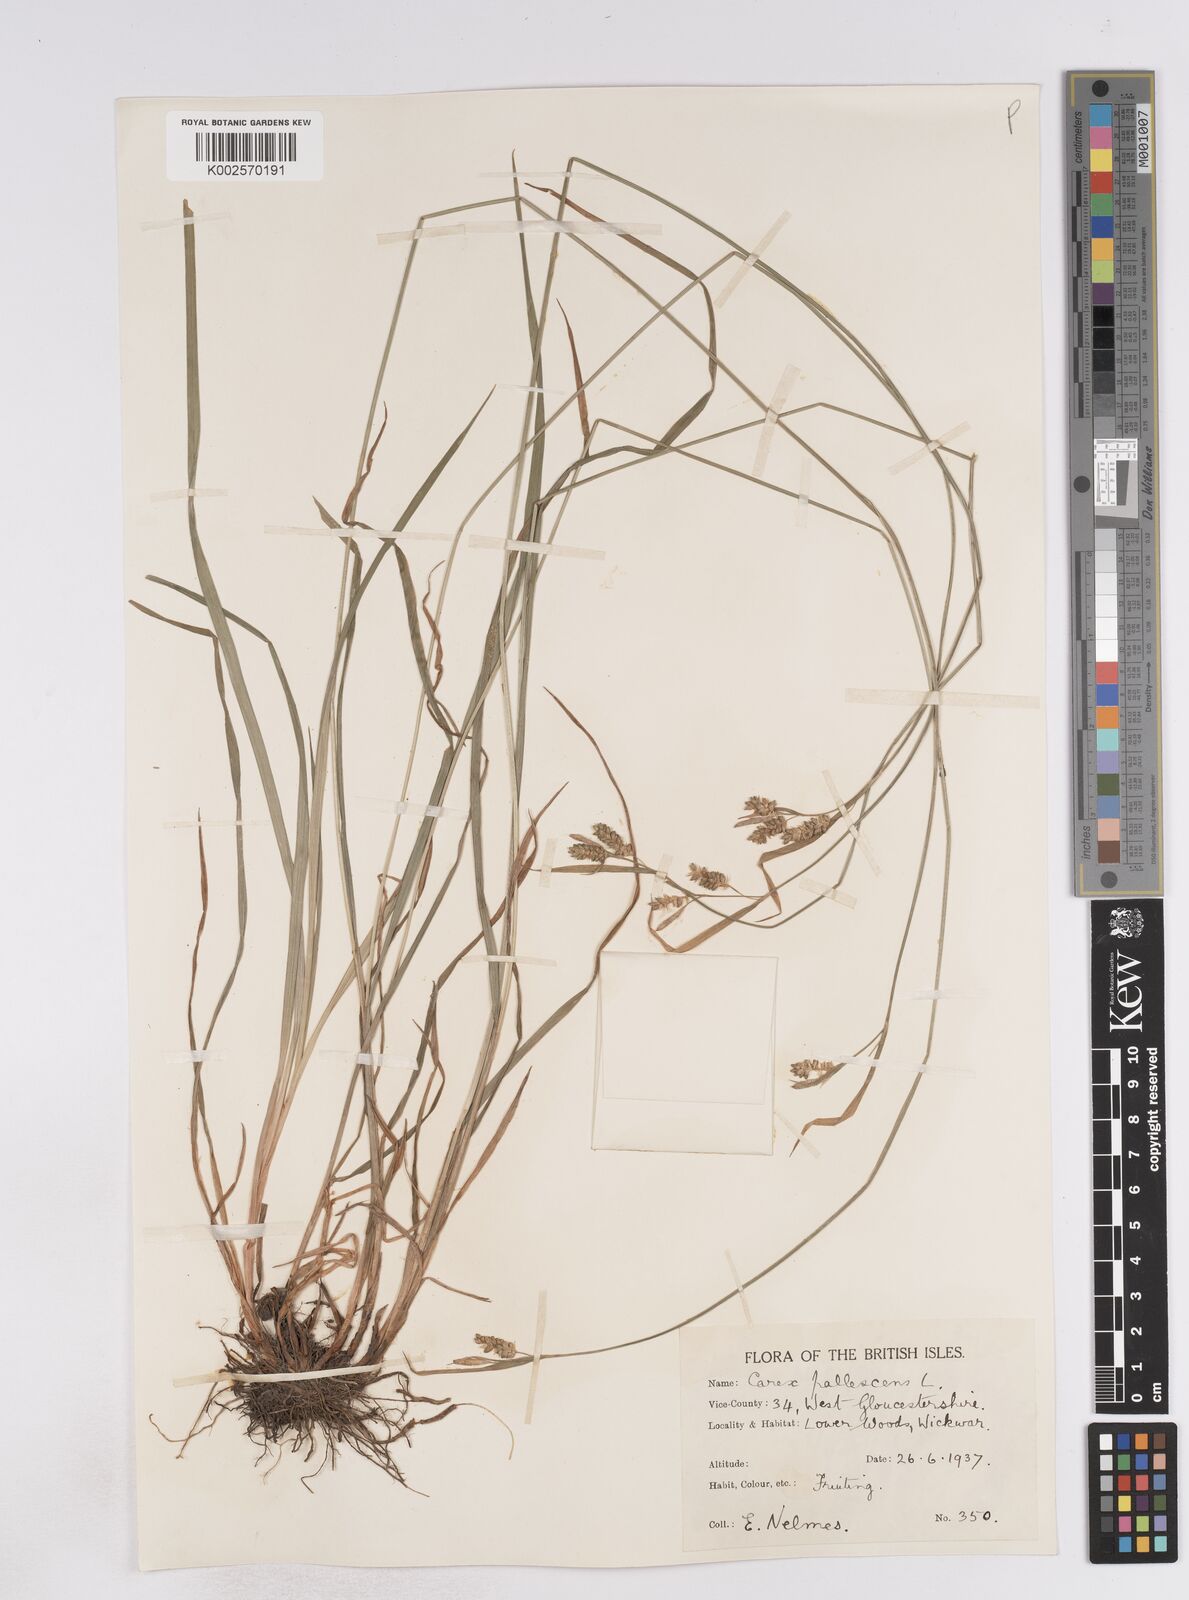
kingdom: Plantae
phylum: Tracheophyta
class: Liliopsida
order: Poales
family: Cyperaceae
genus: Carex
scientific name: Carex pallescens
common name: Pale sedge
